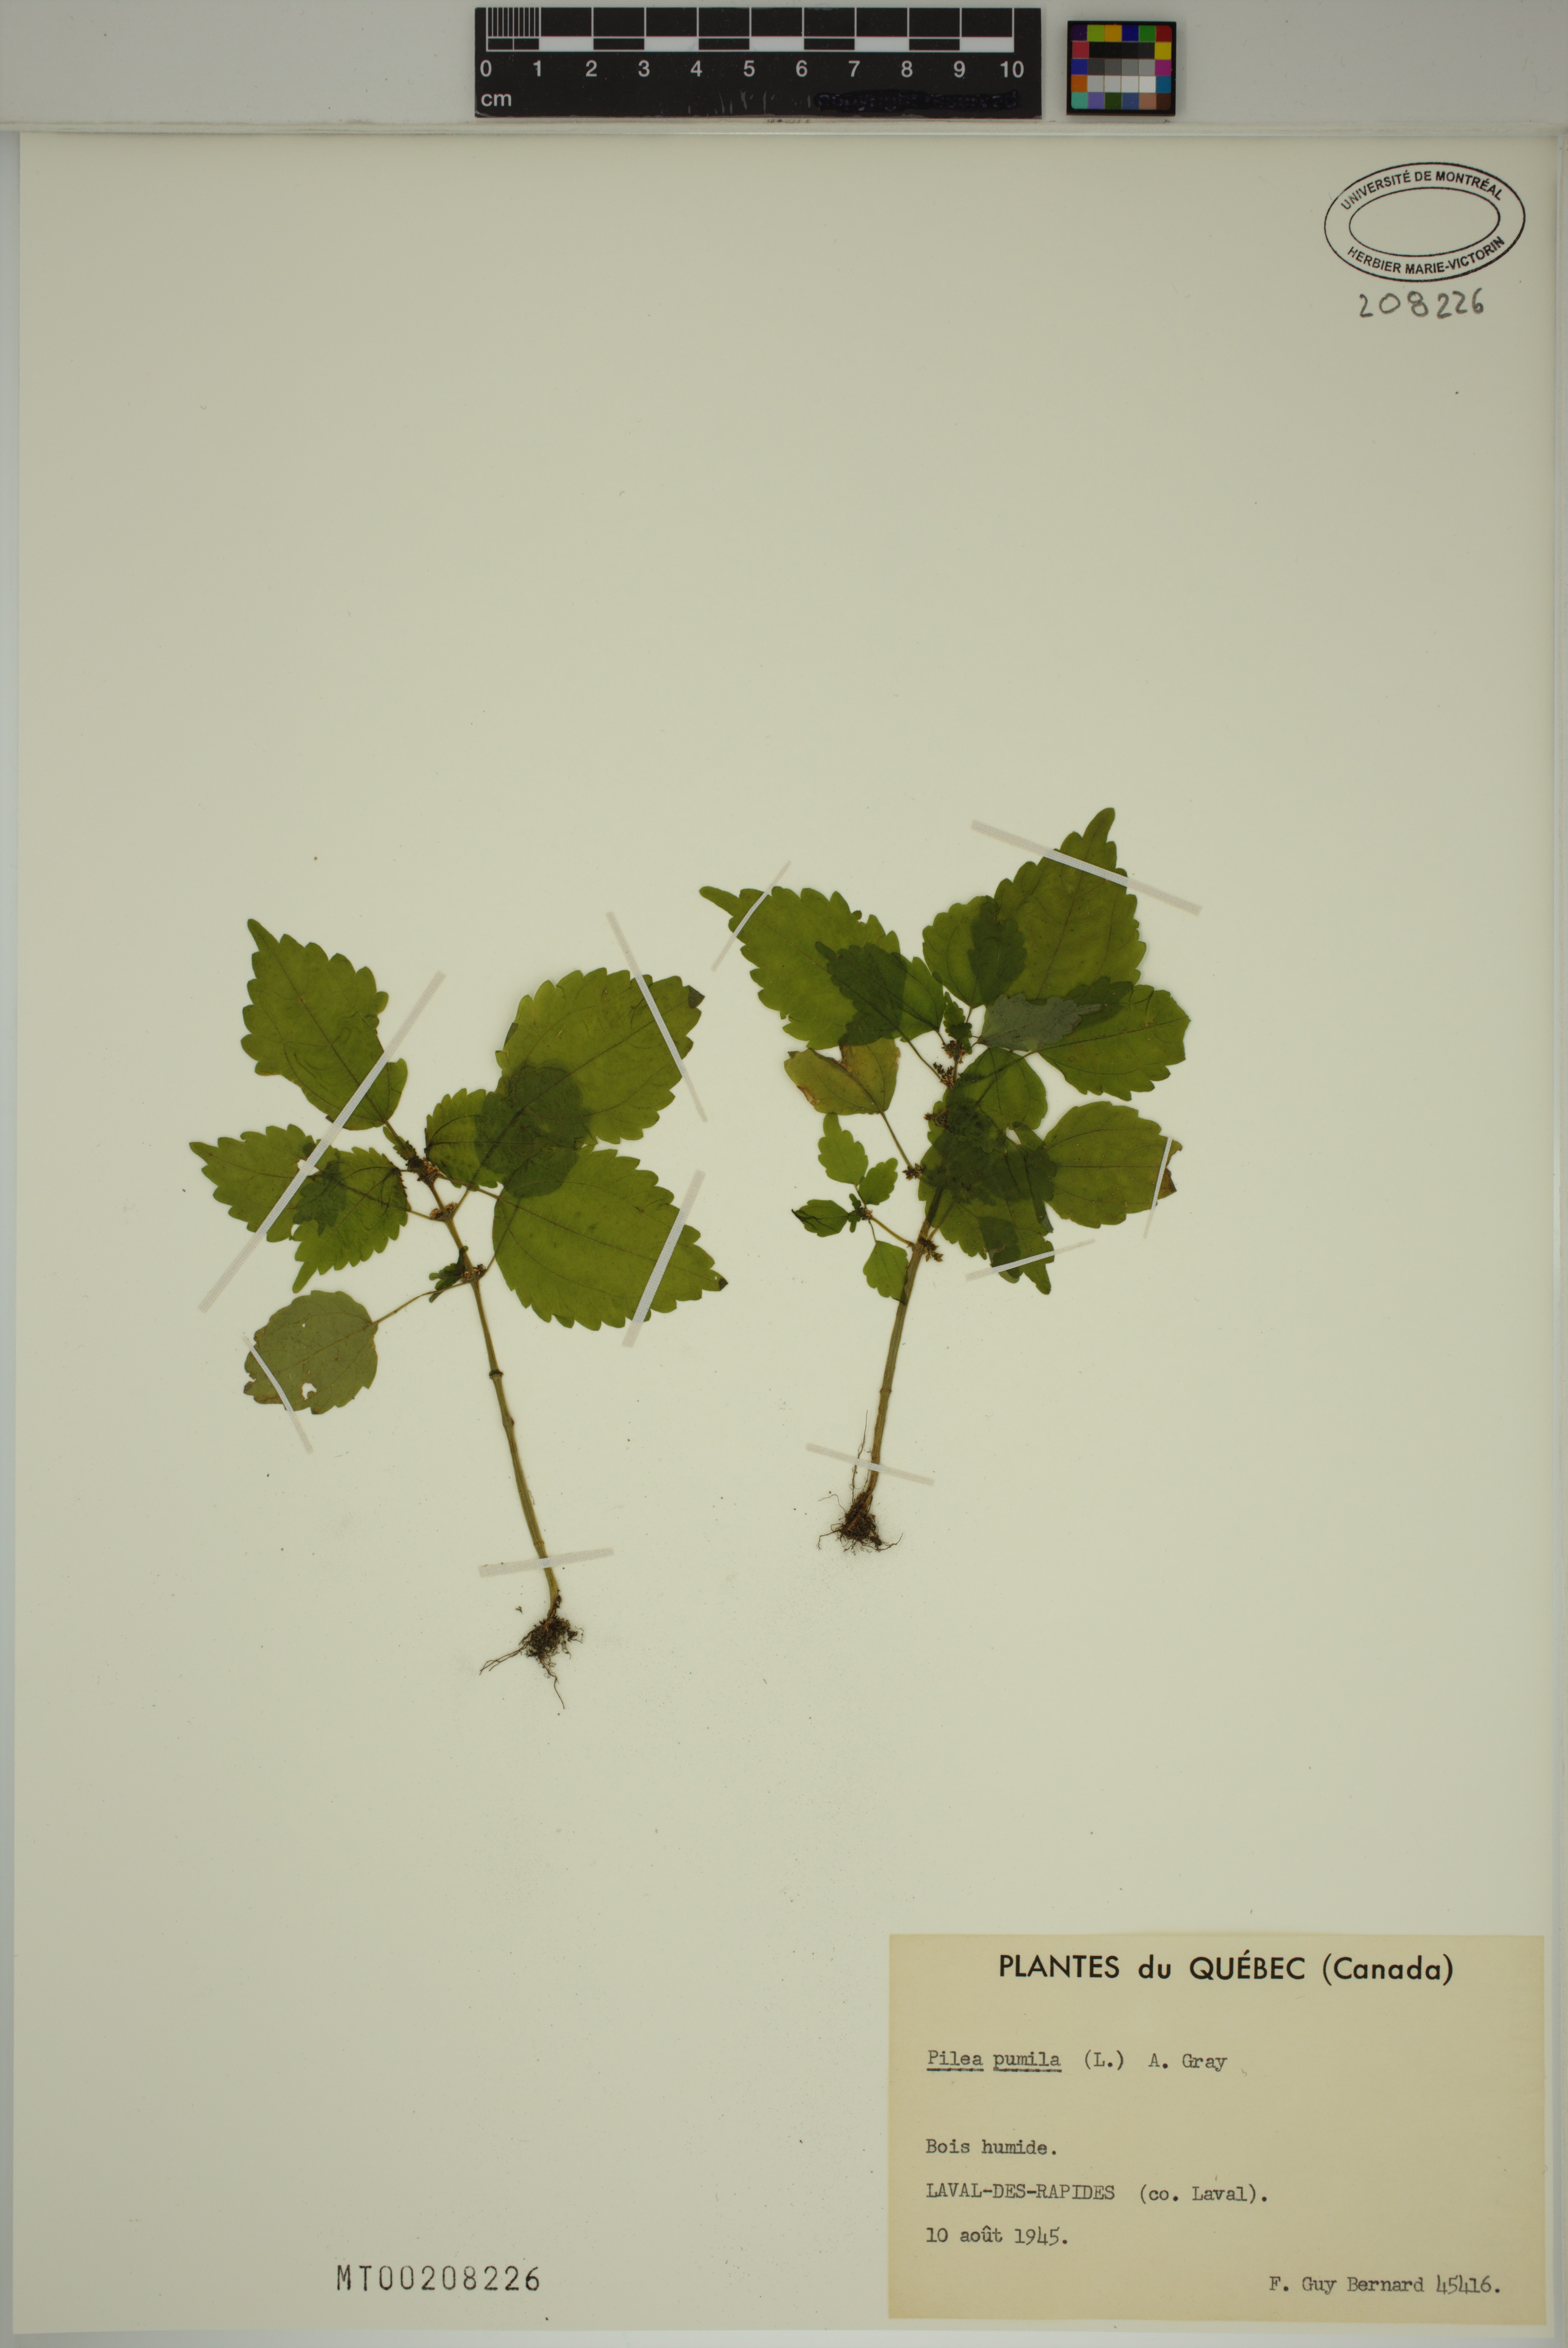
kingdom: Plantae
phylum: Tracheophyta
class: Magnoliopsida
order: Rosales
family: Urticaceae
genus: Pilea
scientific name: Pilea pumila
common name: Clearweed
